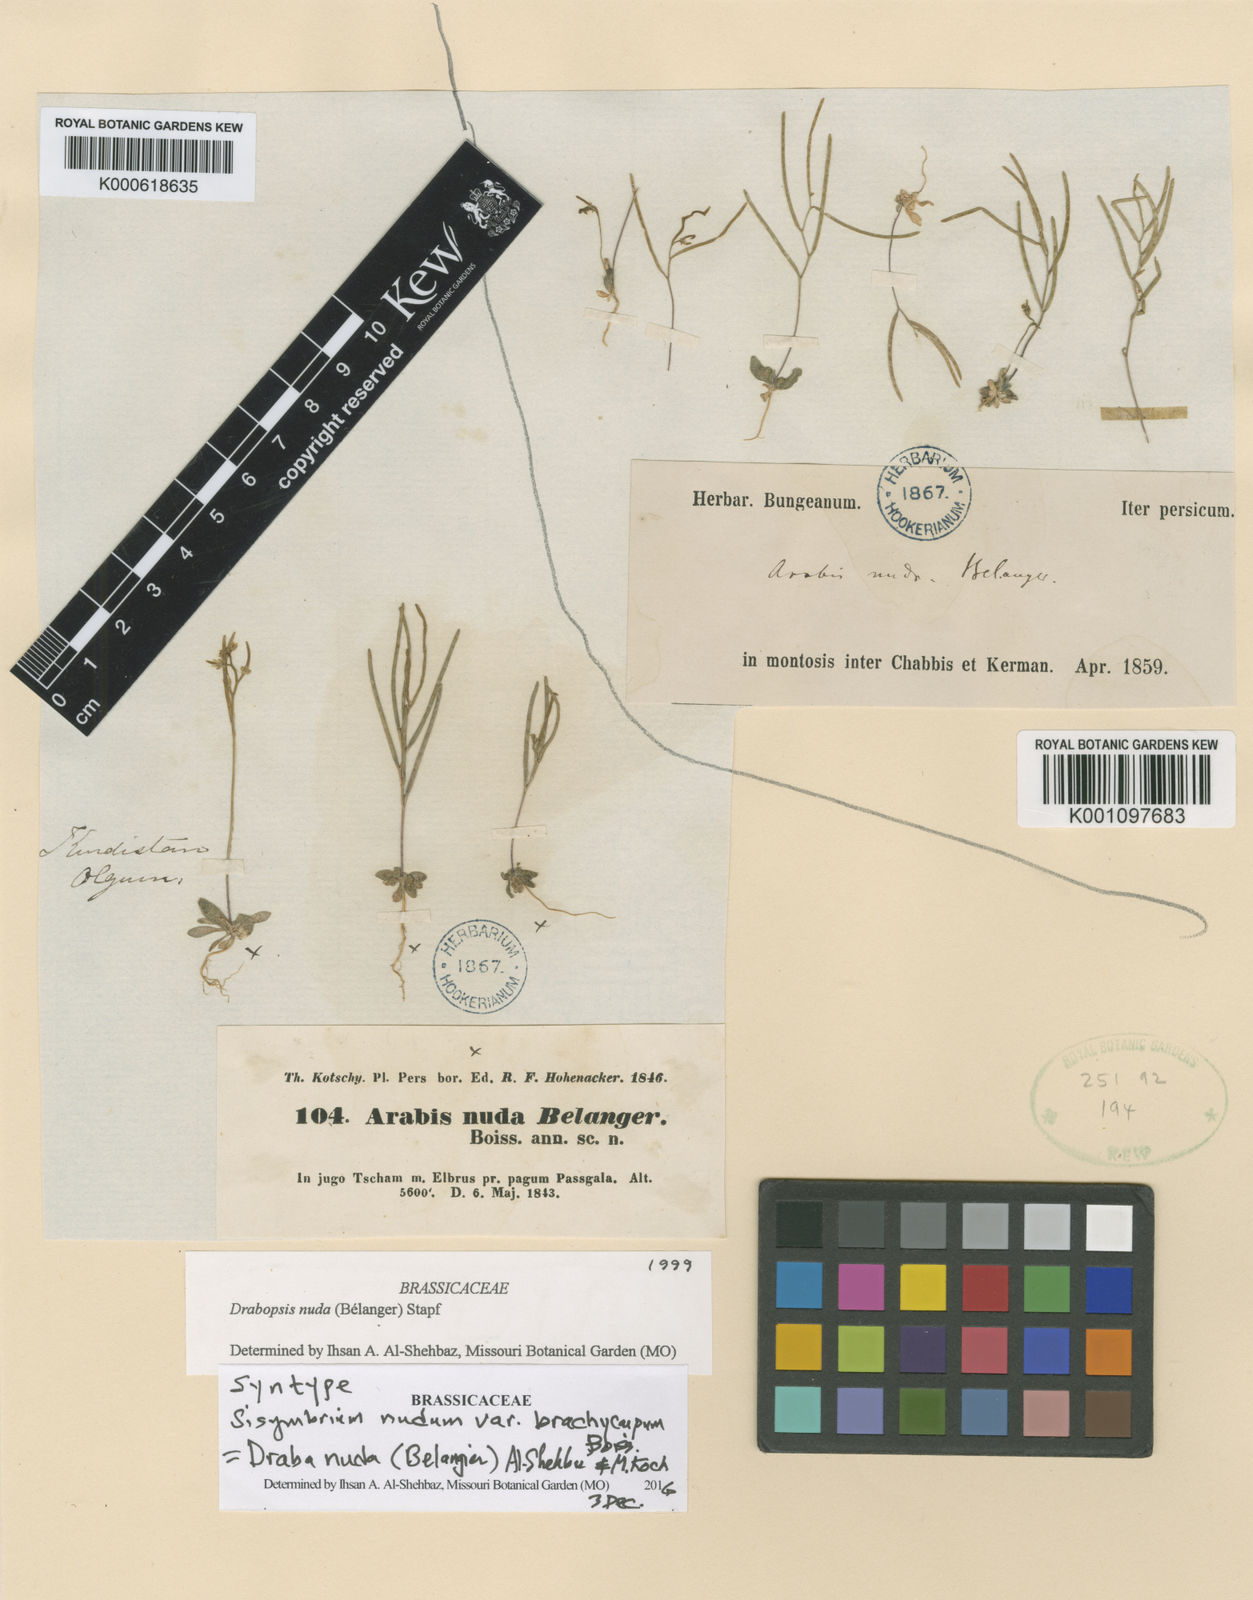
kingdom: Plantae
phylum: Tracheophyta
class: Magnoliopsida
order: Brassicales
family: Brassicaceae
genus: Draba
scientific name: Draba nuda
